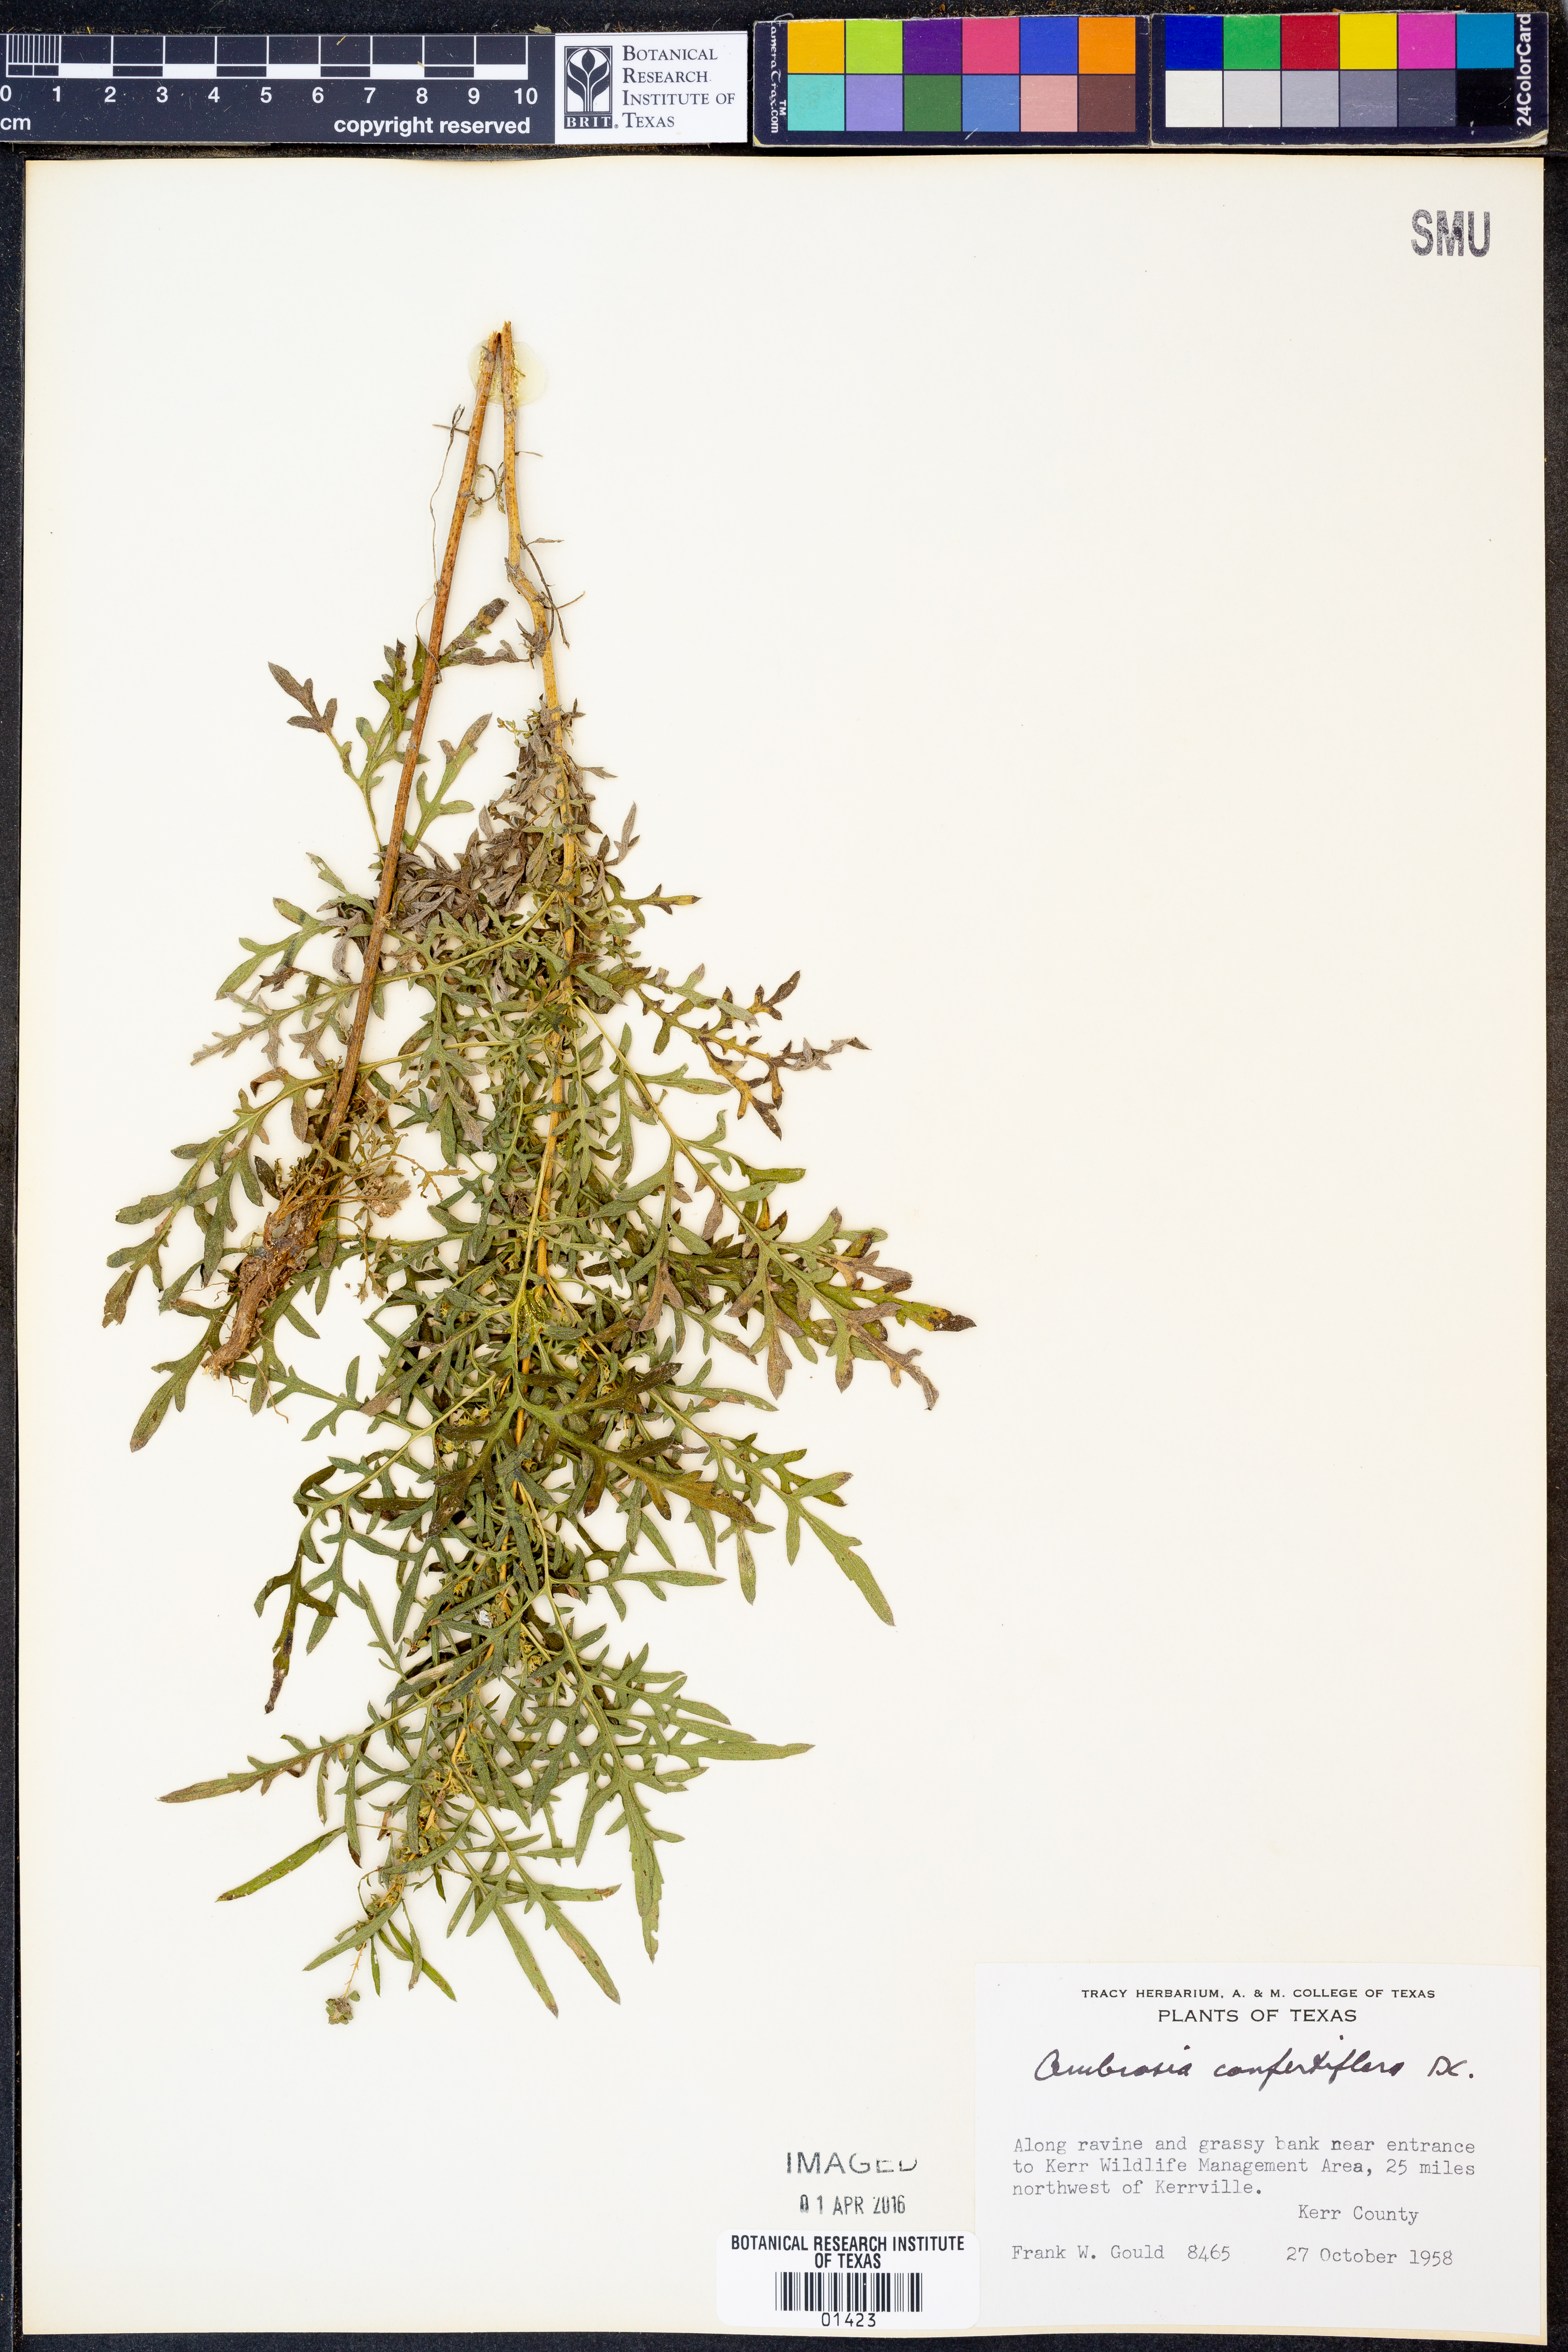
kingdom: Plantae
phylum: Tracheophyta
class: Magnoliopsida
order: Asterales
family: Asteraceae
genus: Ambrosia
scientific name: Ambrosia confertiflora
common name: Bur ragweed
